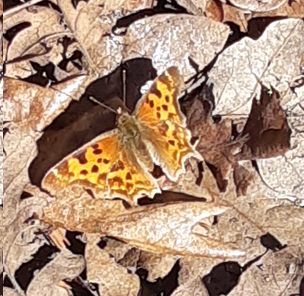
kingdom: Animalia
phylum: Arthropoda
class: Insecta
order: Lepidoptera
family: Nymphalidae
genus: Polygonia
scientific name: Polygonia satyrus
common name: Satyr Comma
